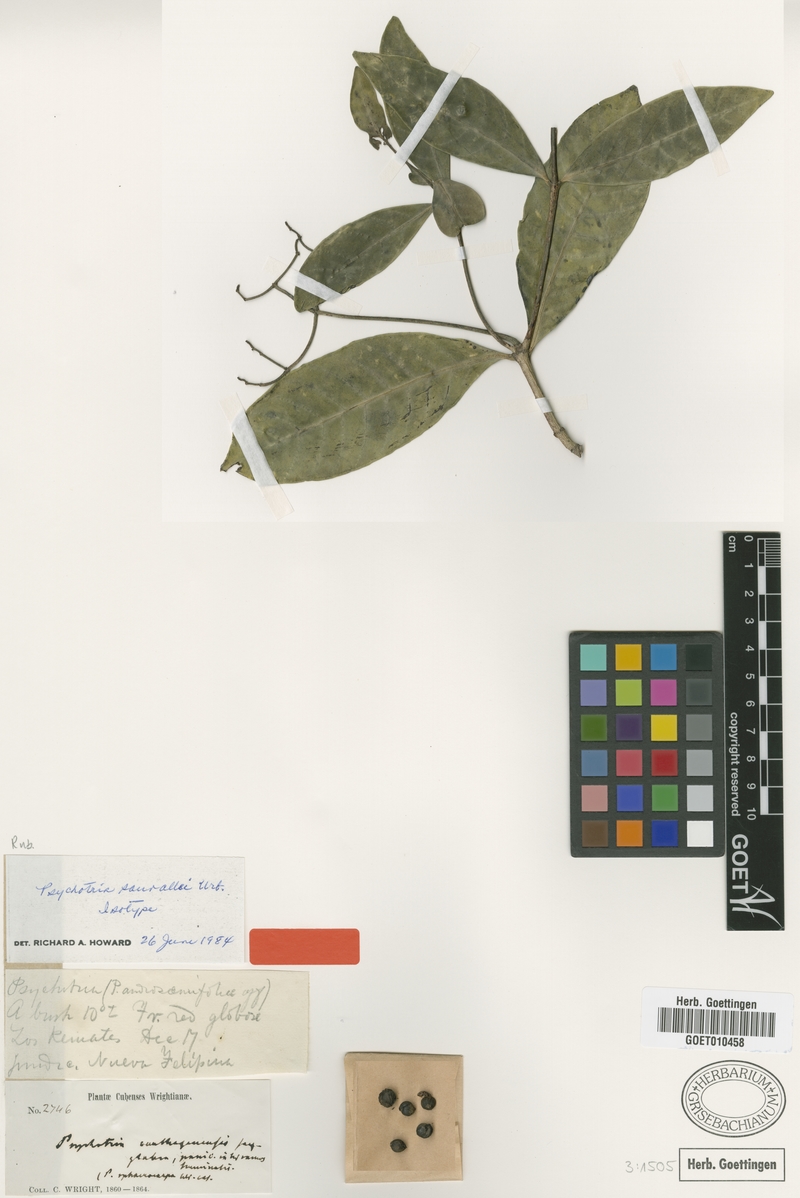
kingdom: Plantae
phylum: Tracheophyta
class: Magnoliopsida
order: Gentianales
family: Rubiaceae
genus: Psychotria
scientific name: Psychotria sauvallei
